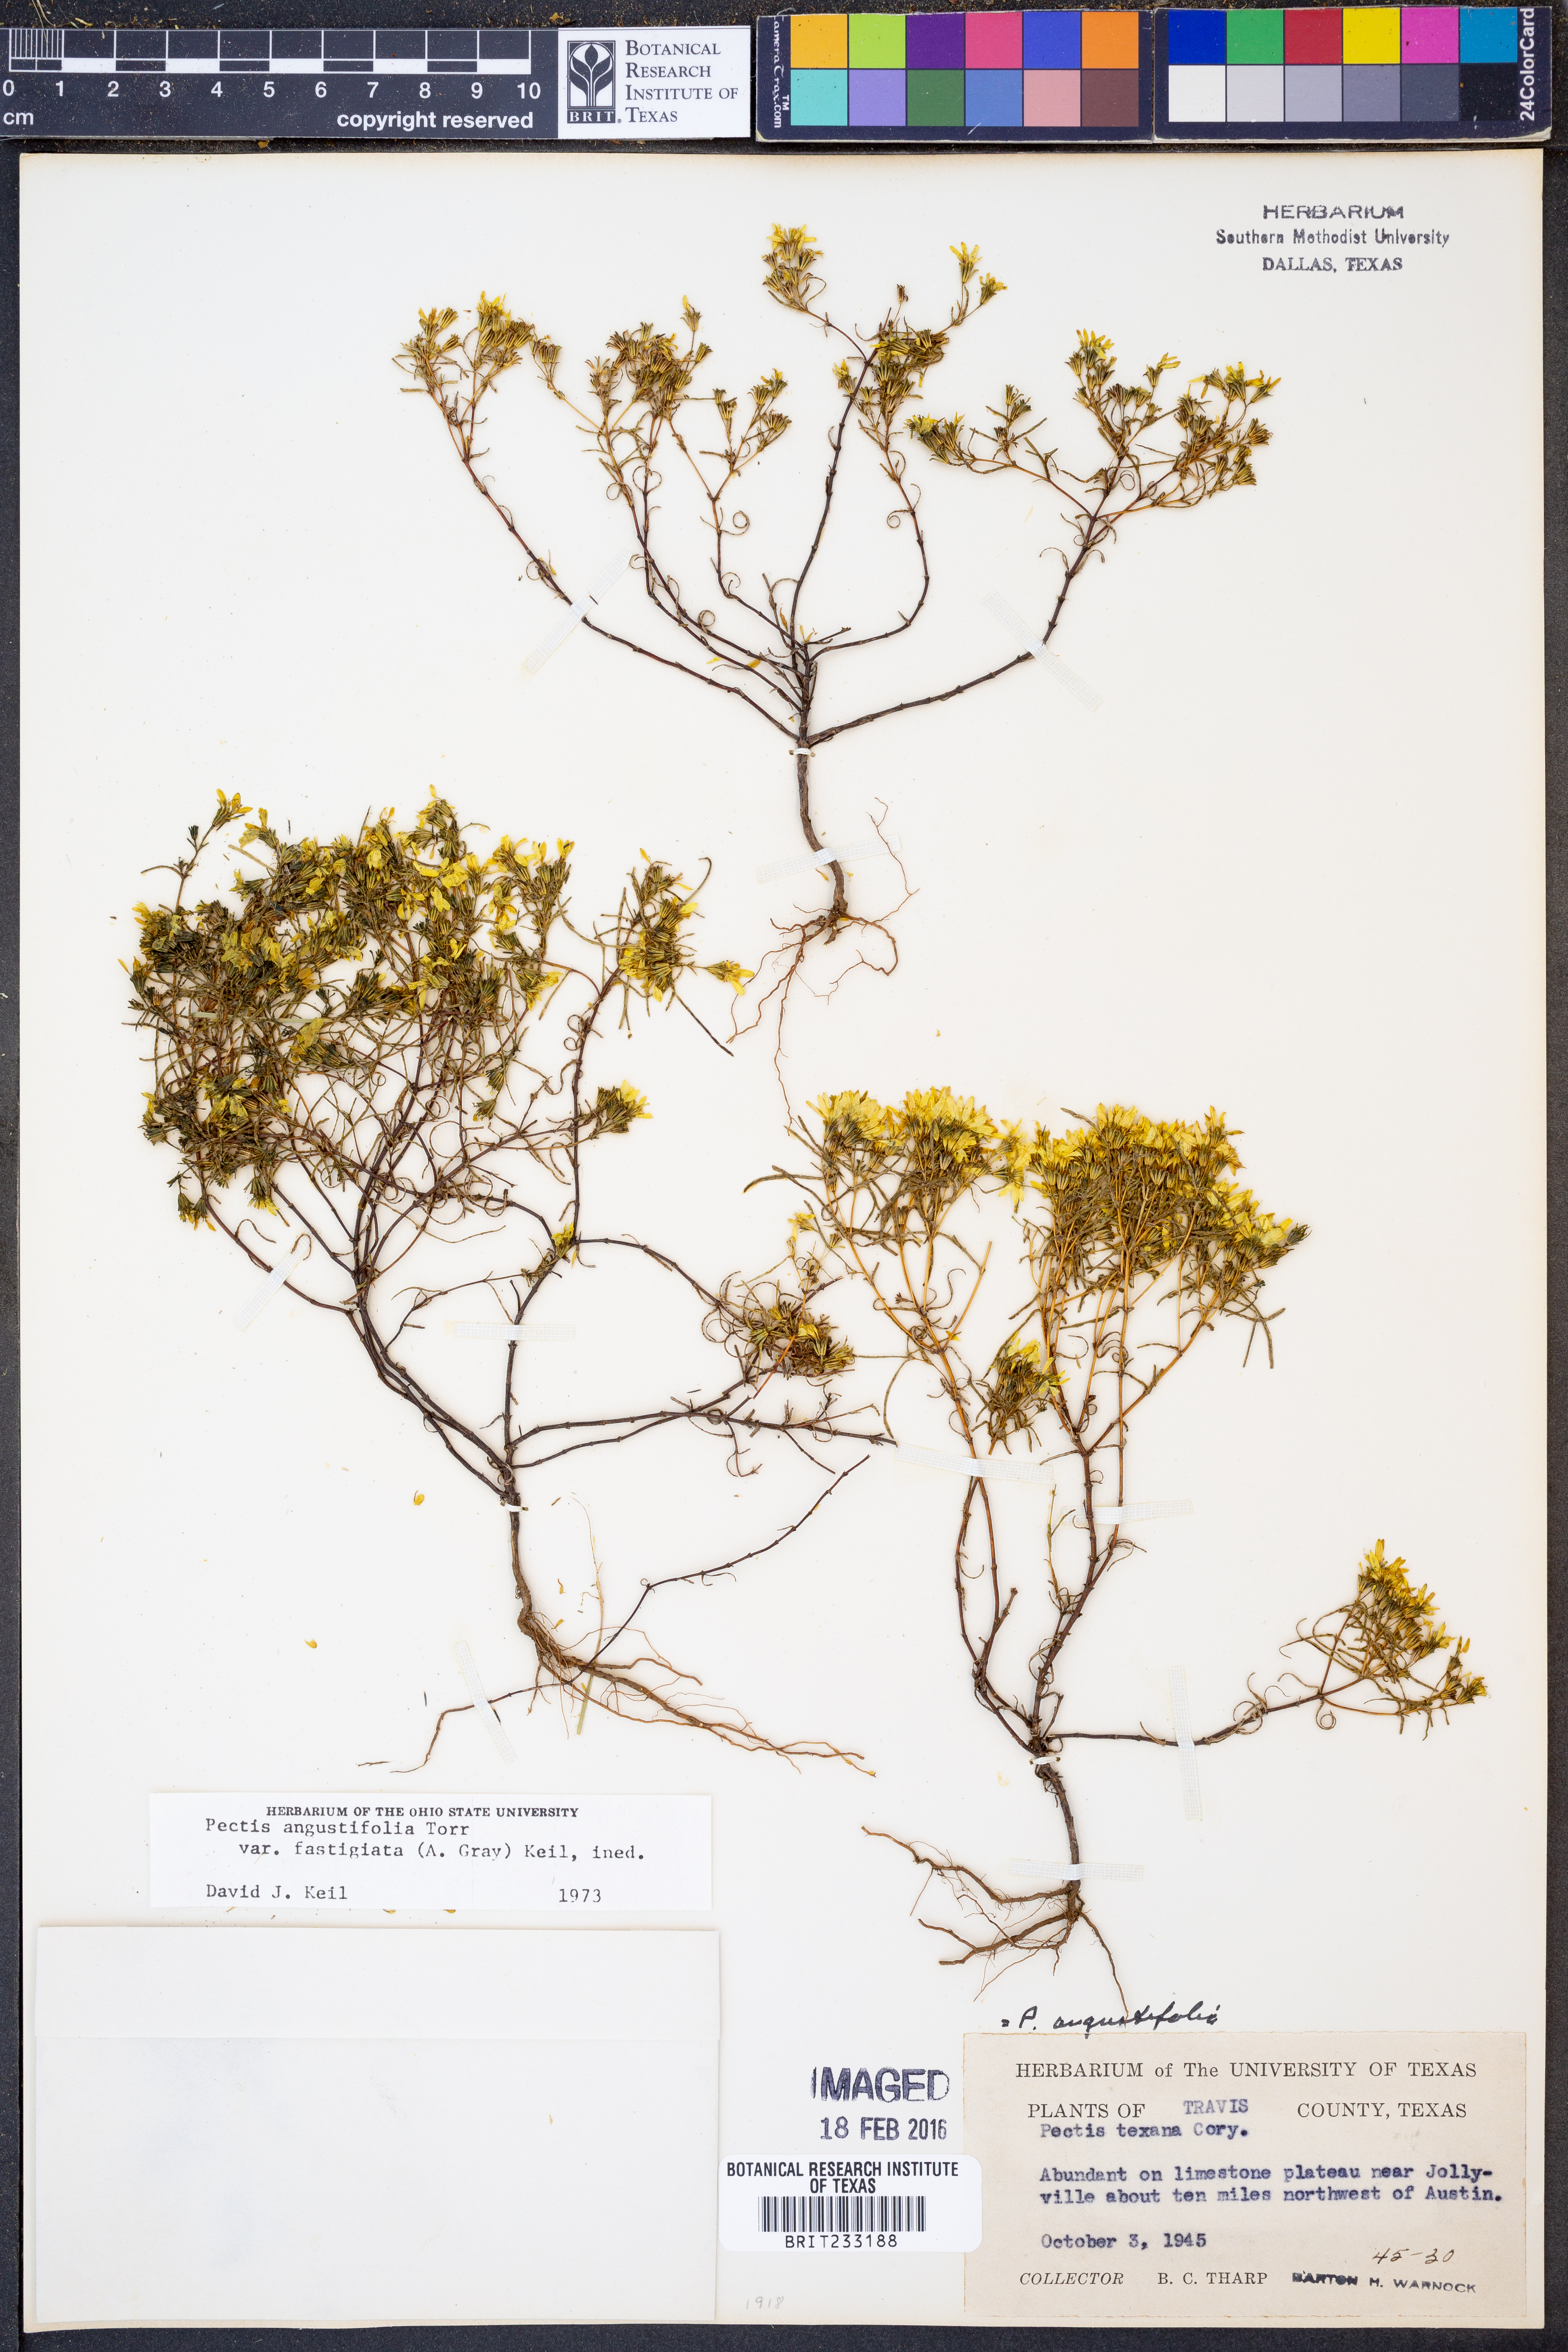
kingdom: Plantae
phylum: Tracheophyta
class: Magnoliopsida
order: Asterales
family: Asteraceae
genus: Pectis
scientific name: Pectis angustifolia
